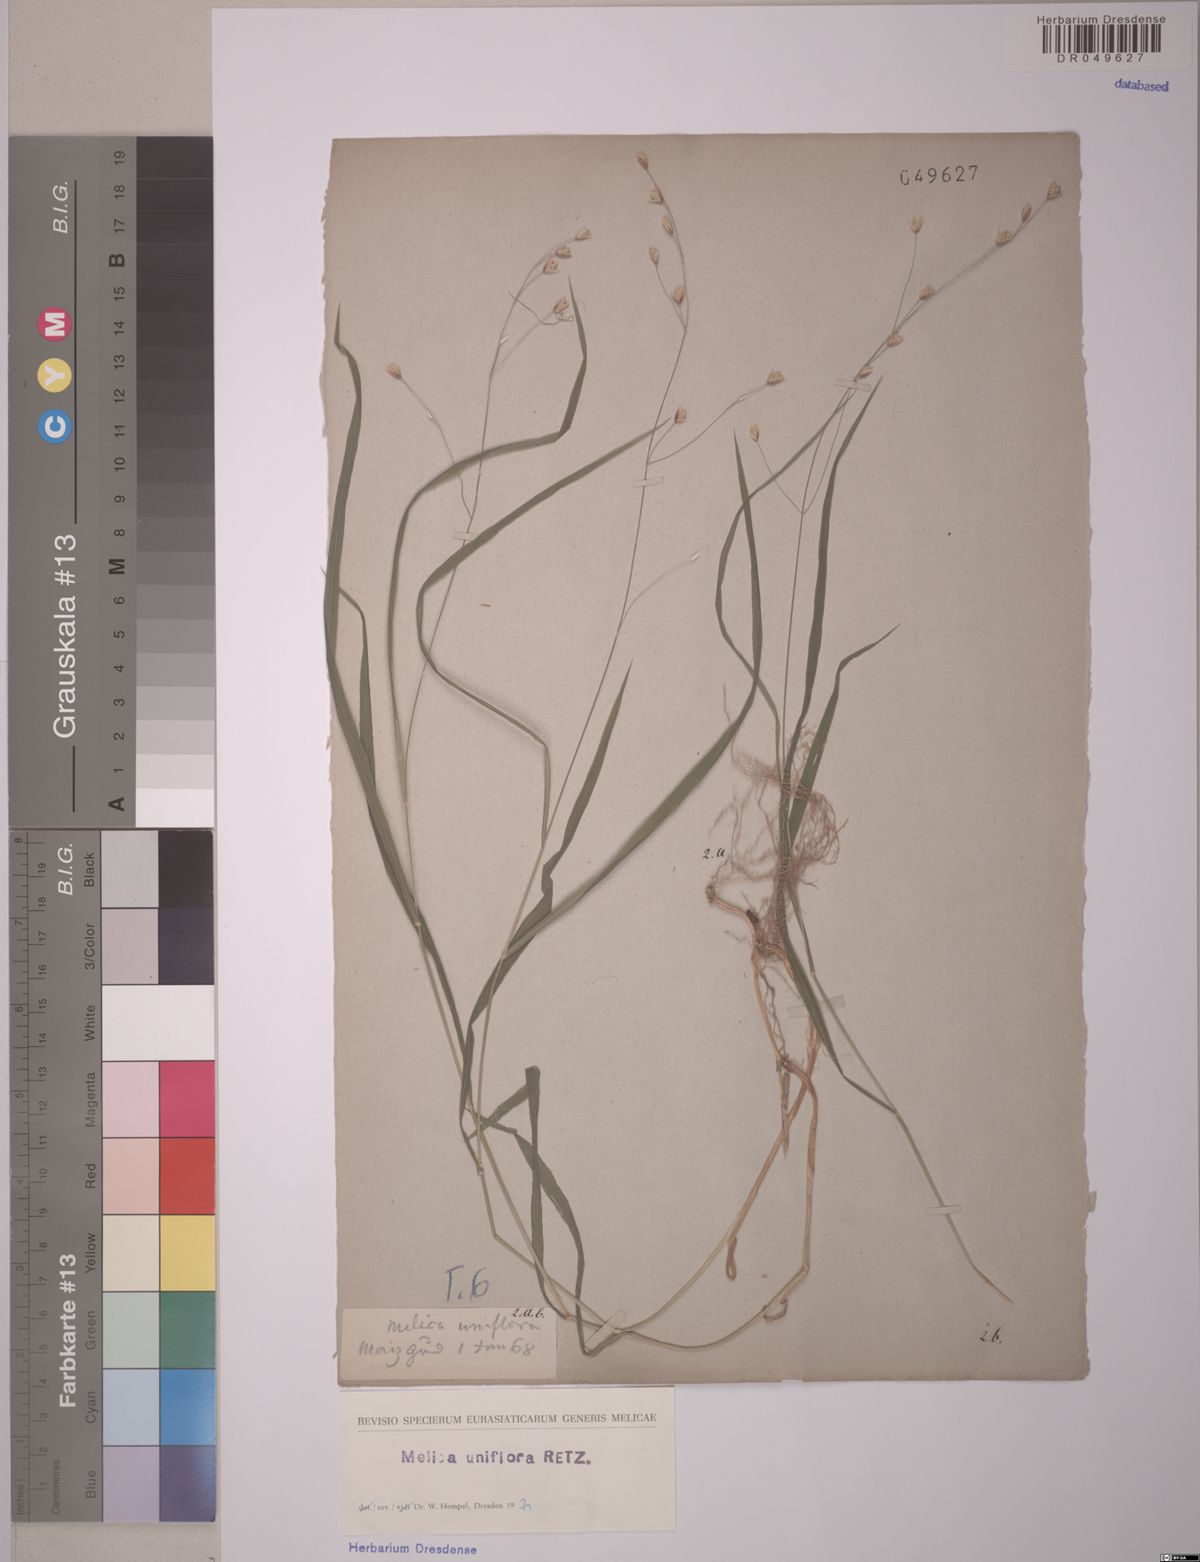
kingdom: Plantae
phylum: Tracheophyta
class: Liliopsida
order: Poales
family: Poaceae
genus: Melica
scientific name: Melica uniflora
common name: Wood melick
